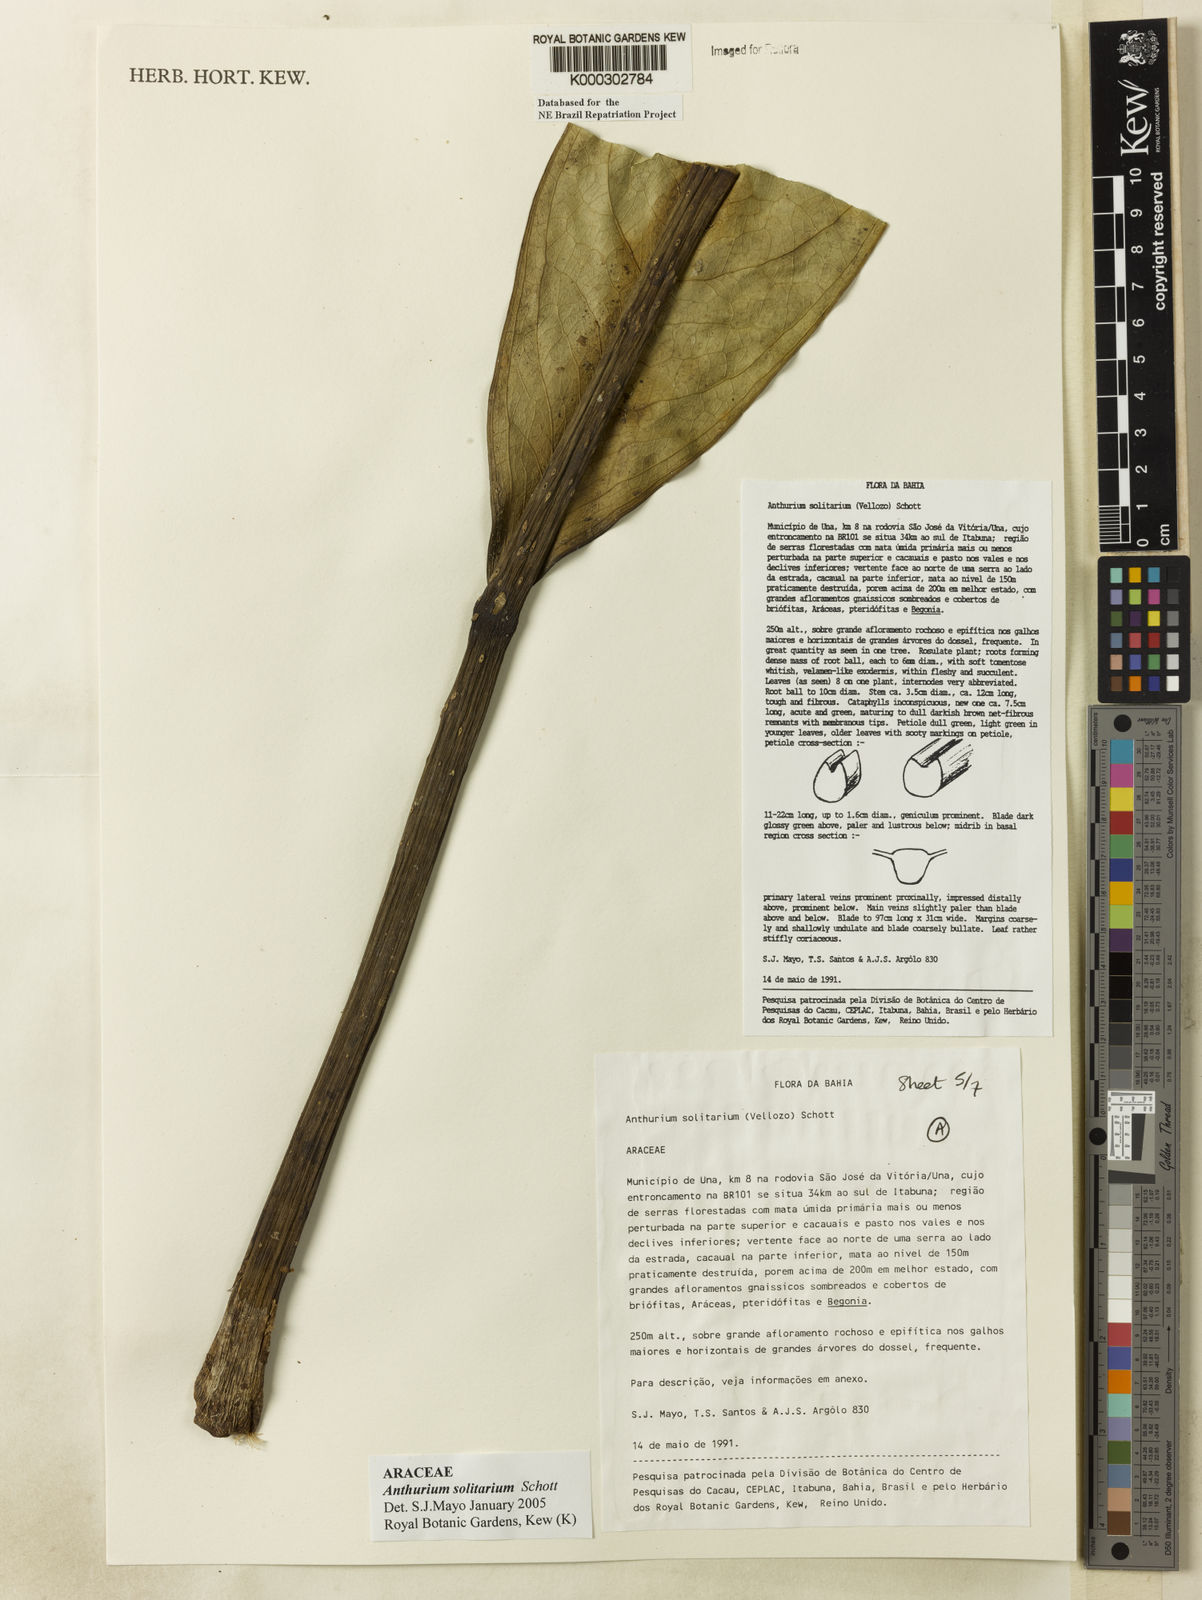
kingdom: Plantae
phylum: Tracheophyta
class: Liliopsida
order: Alismatales
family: Araceae
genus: Anthurium
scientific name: Anthurium solitarium
